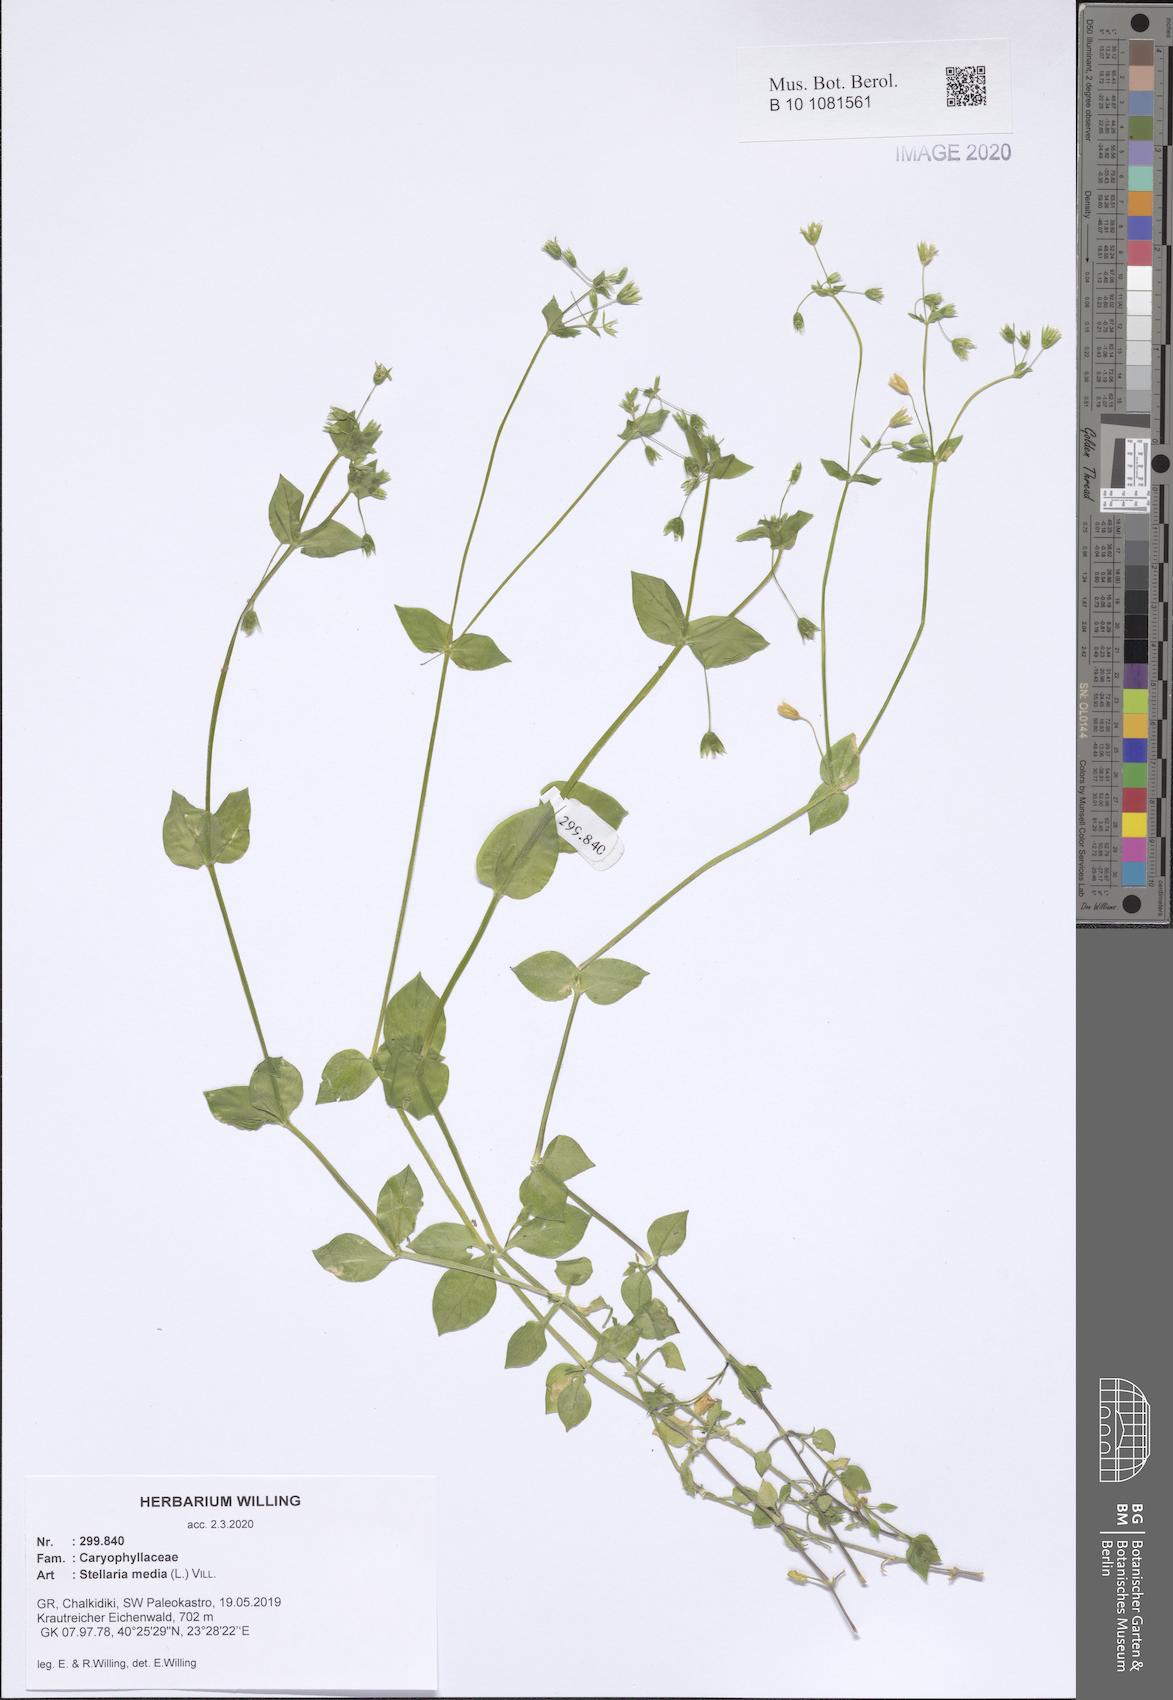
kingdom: Plantae
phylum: Tracheophyta
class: Magnoliopsida
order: Caryophyllales
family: Caryophyllaceae
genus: Stellaria
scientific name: Stellaria media
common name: Common chickweed
